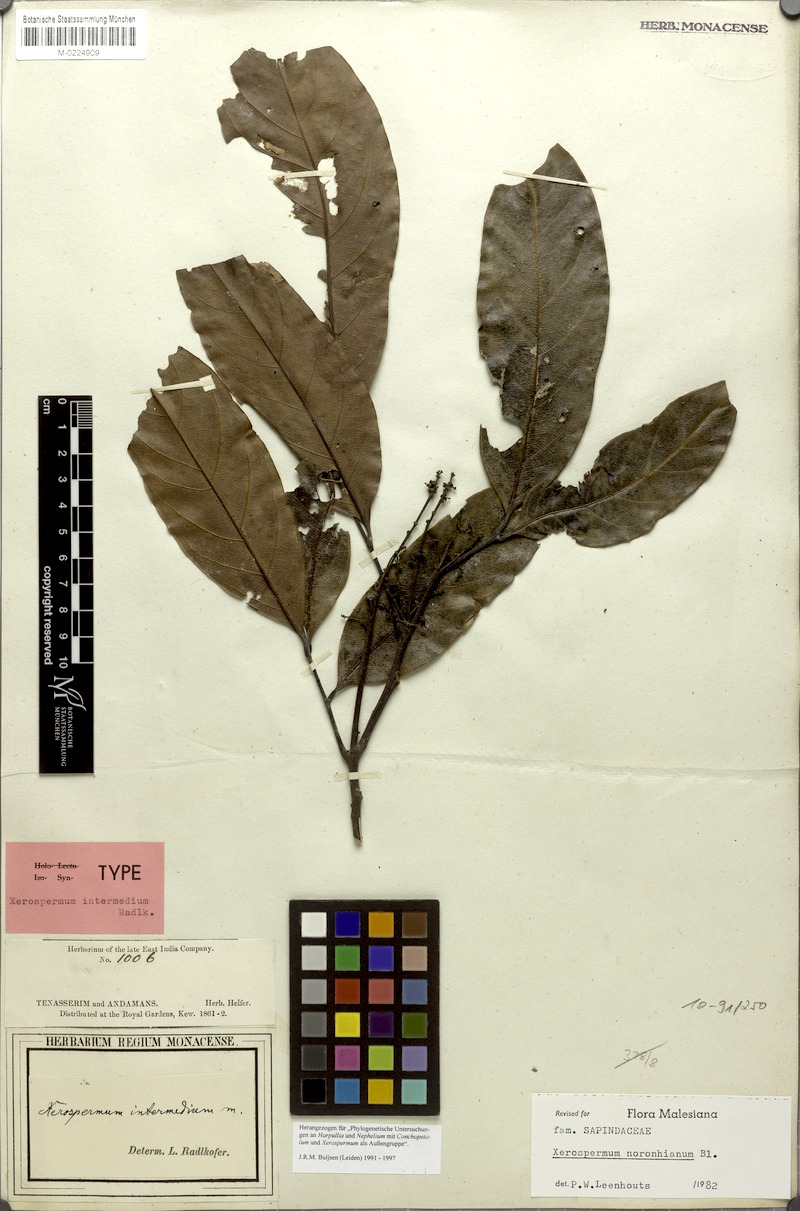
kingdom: Plantae
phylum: Tracheophyta
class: Magnoliopsida
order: Sapindales
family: Sapindaceae
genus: Xerospermum
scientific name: Xerospermum noronhianum
